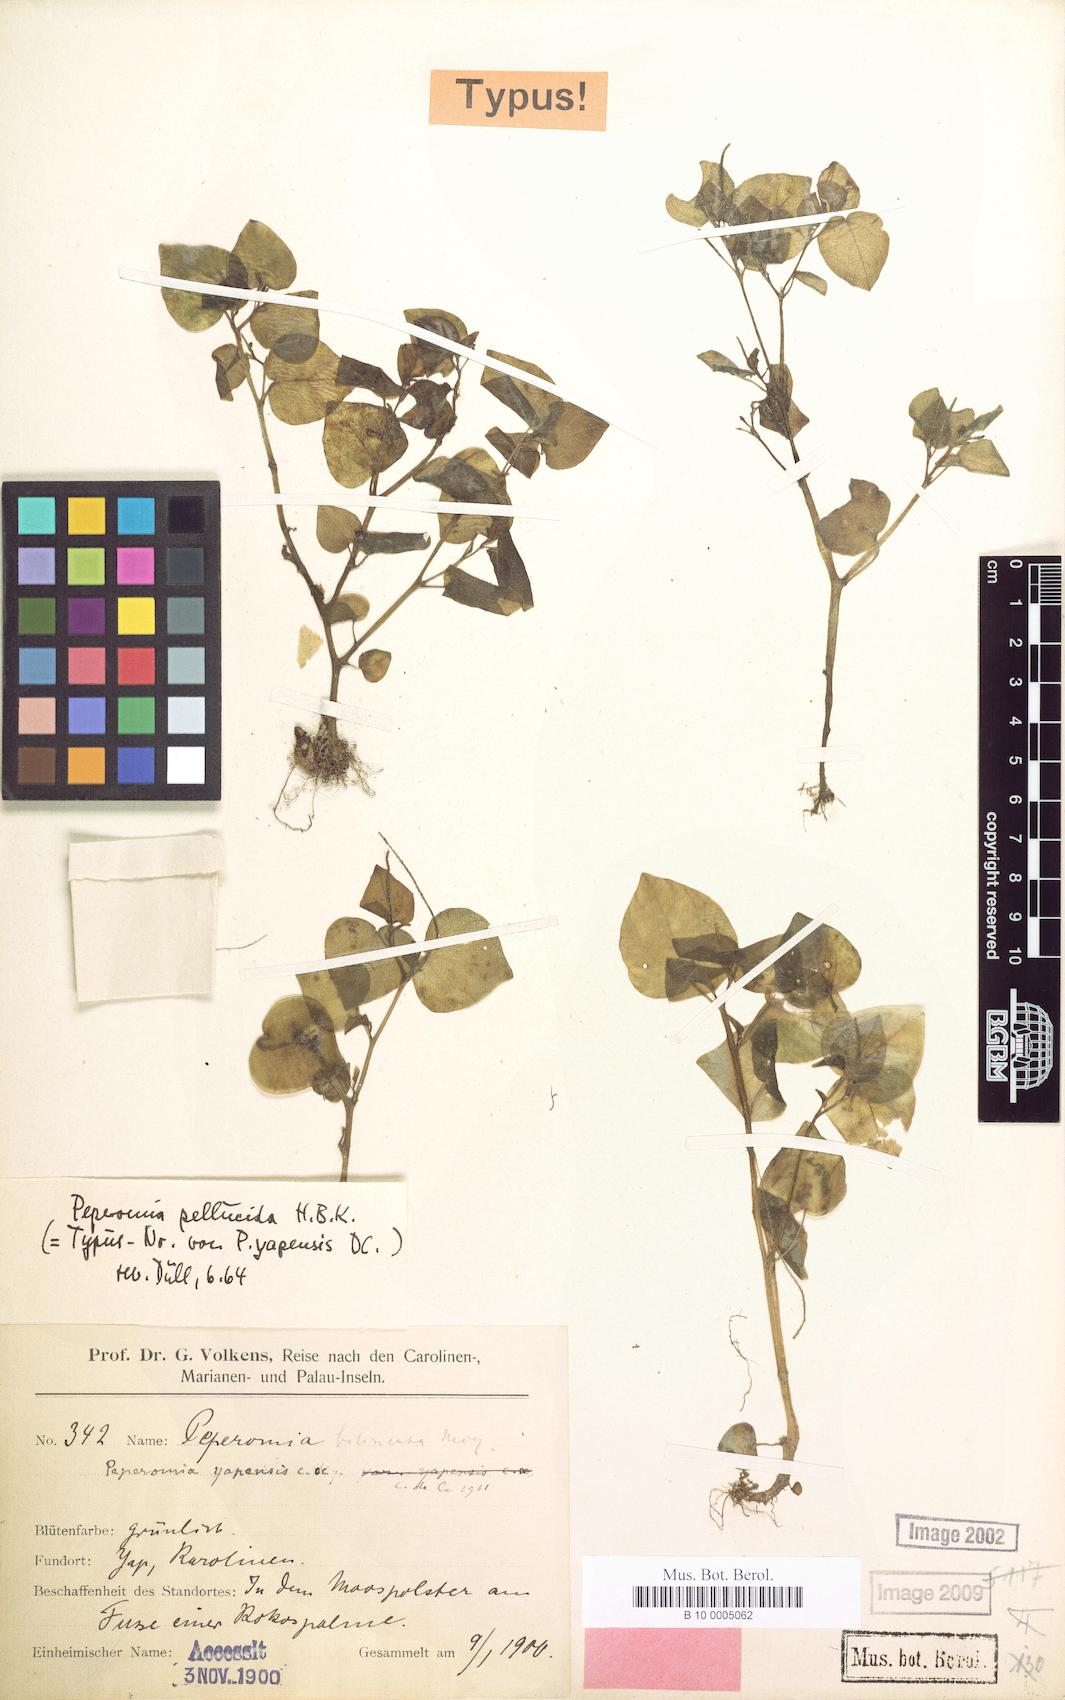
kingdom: Plantae
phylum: Tracheophyta
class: Magnoliopsida
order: Piperales
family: Piperaceae
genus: Peperomia
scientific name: Peperomia pellucida
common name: Man to man
